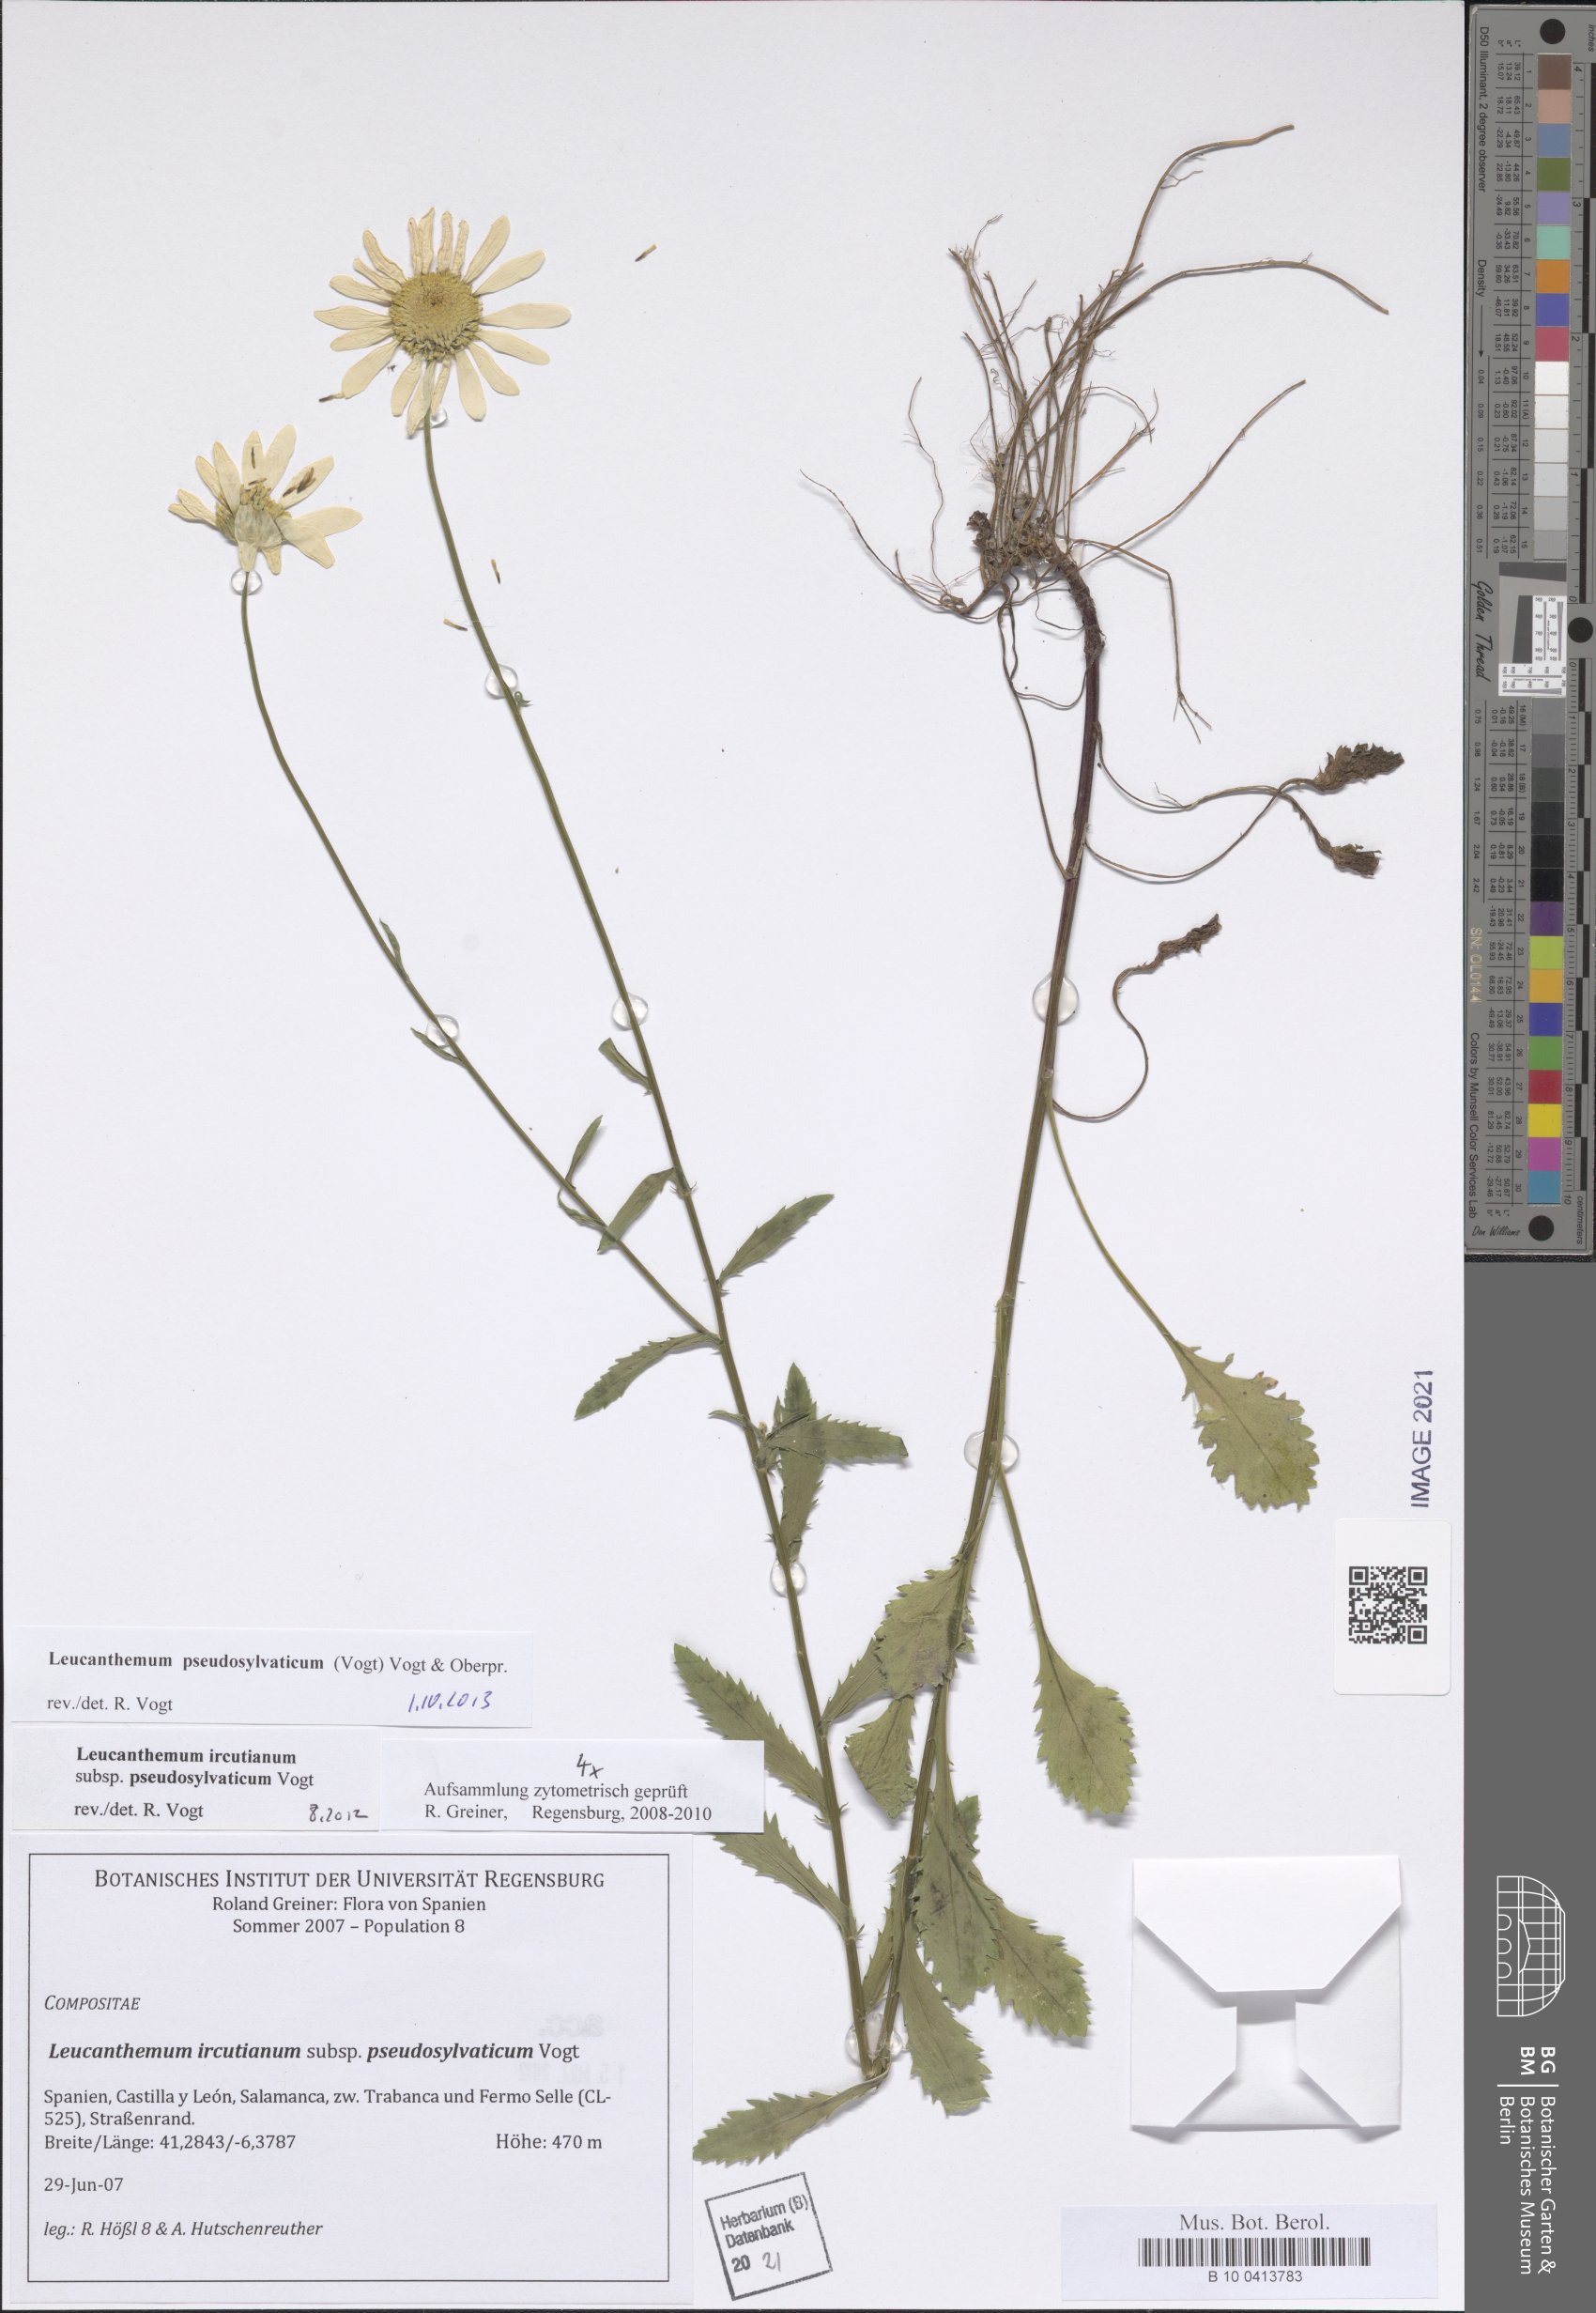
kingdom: Plantae
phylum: Tracheophyta
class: Magnoliopsida
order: Asterales
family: Asteraceae
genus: Leucanthemum
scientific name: Leucanthemum pseudosylvaticum
